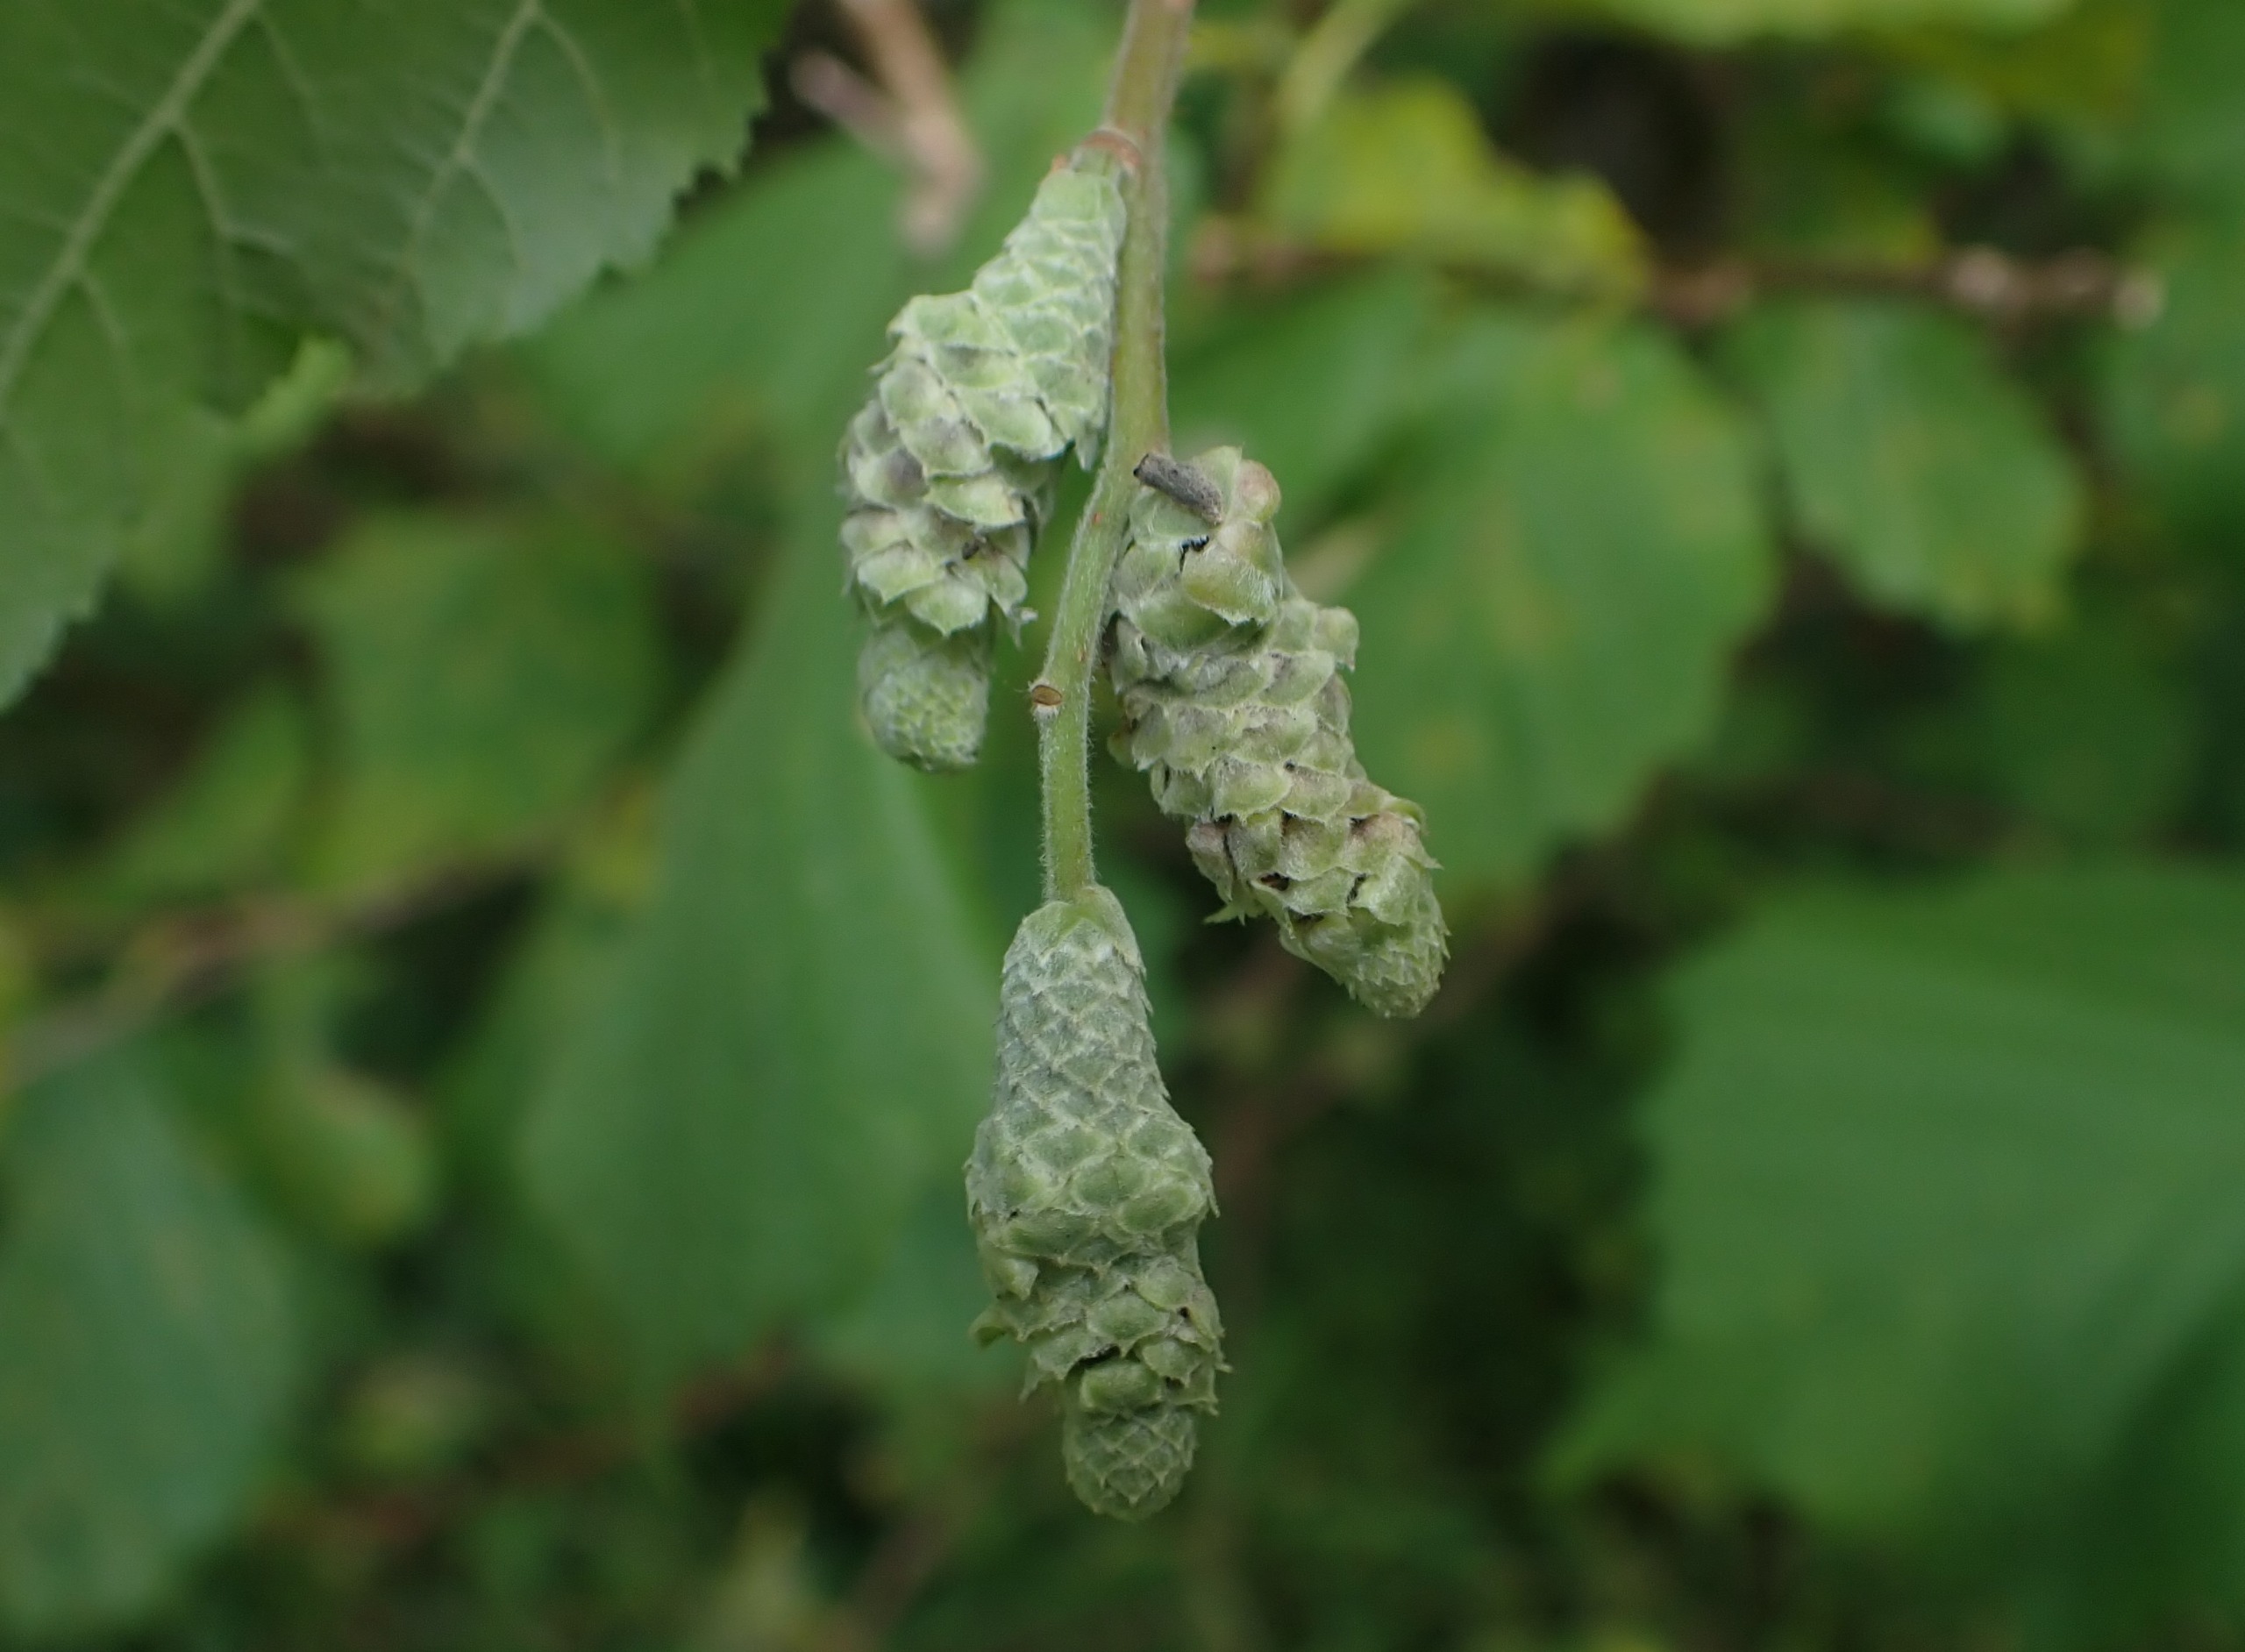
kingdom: Animalia
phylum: Arthropoda
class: Insecta
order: Diptera
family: Cecidomyiidae
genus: Contarinia
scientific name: Contarinia coryli
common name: Hasselraklegalmyg
